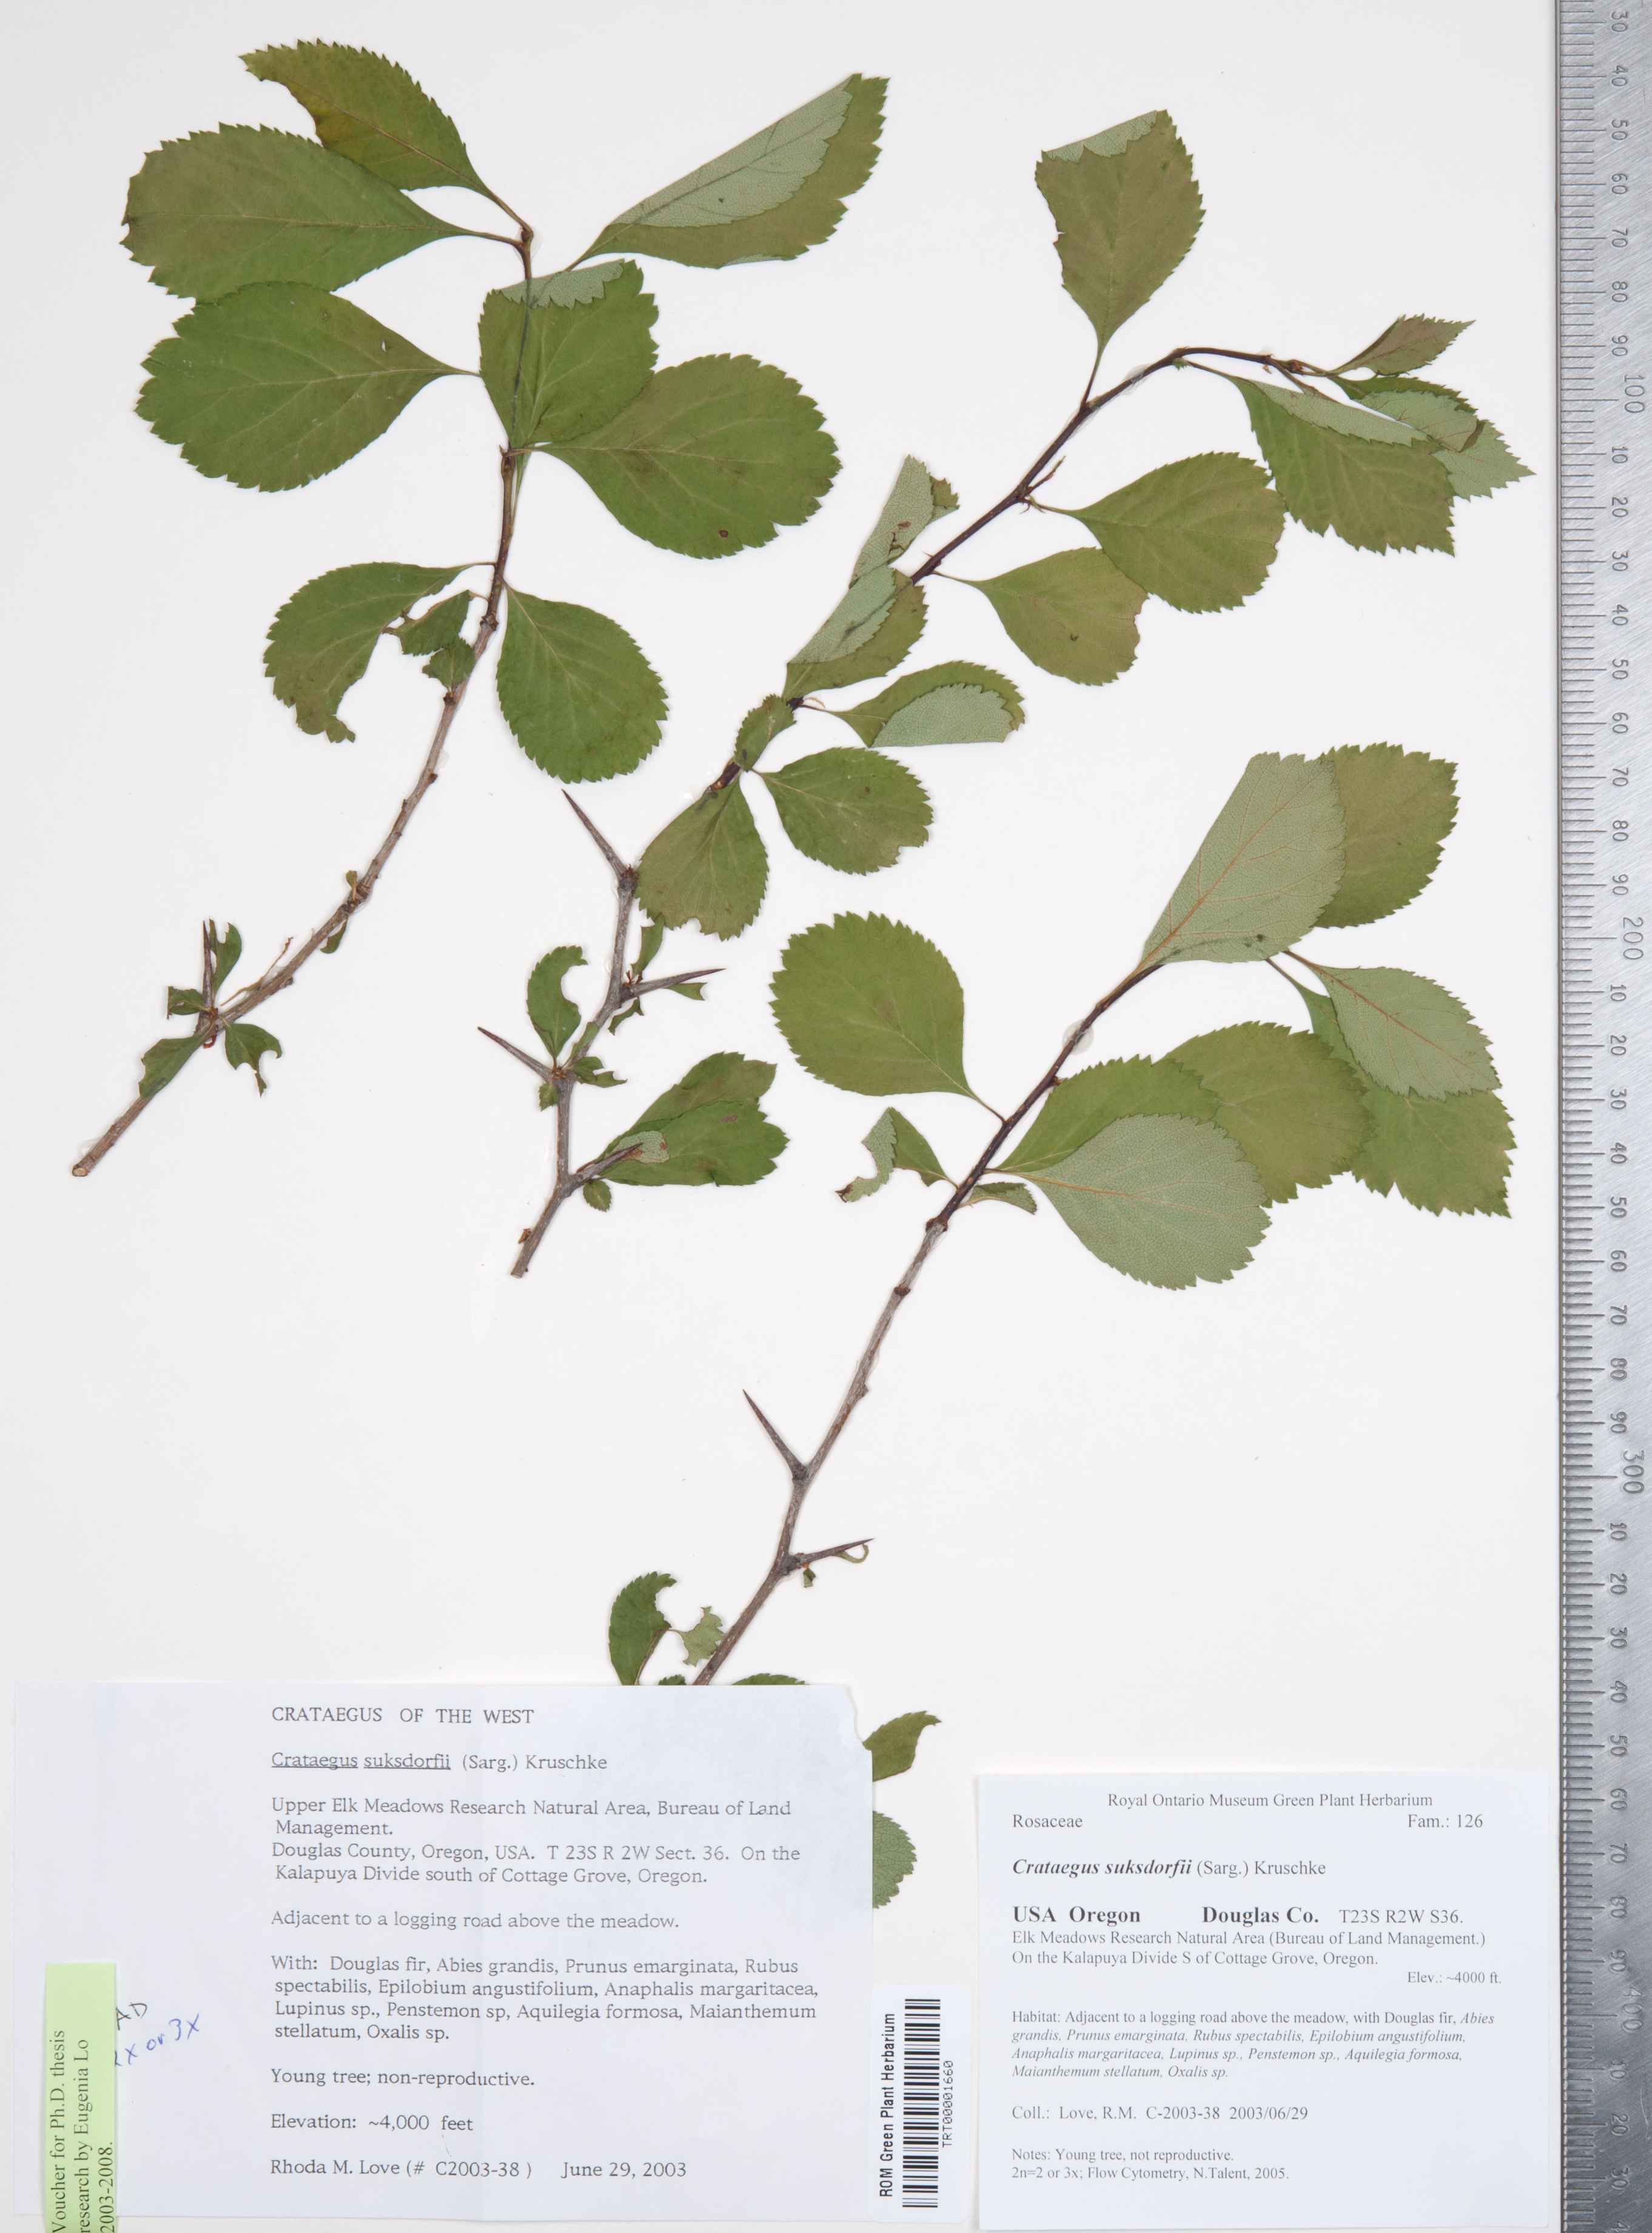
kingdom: Plantae
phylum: Tracheophyta
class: Magnoliopsida
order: Rosales
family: Rosaceae
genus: Crataegus
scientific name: Crataegus gaylussacia
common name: Huckleberry hawthorn
